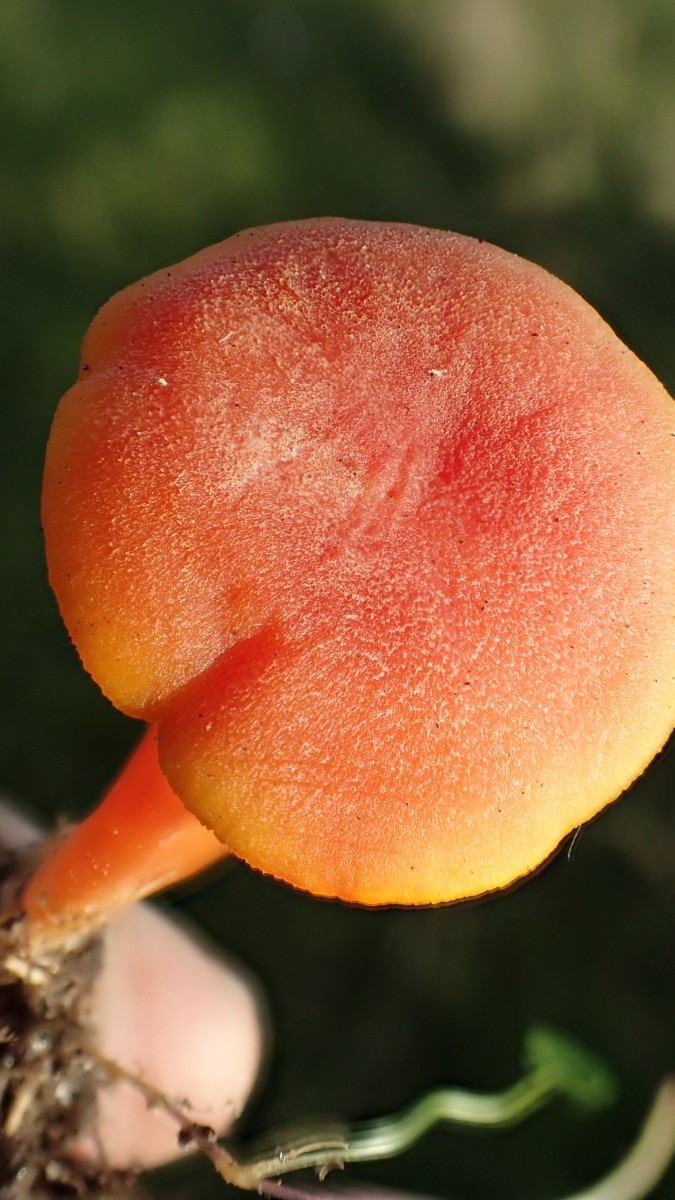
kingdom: Fungi
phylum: Basidiomycota
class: Agaricomycetes
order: Agaricales
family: Hygrophoraceae
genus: Hygrocybe
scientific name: Hygrocybe miniata
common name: mønje-vokshat
